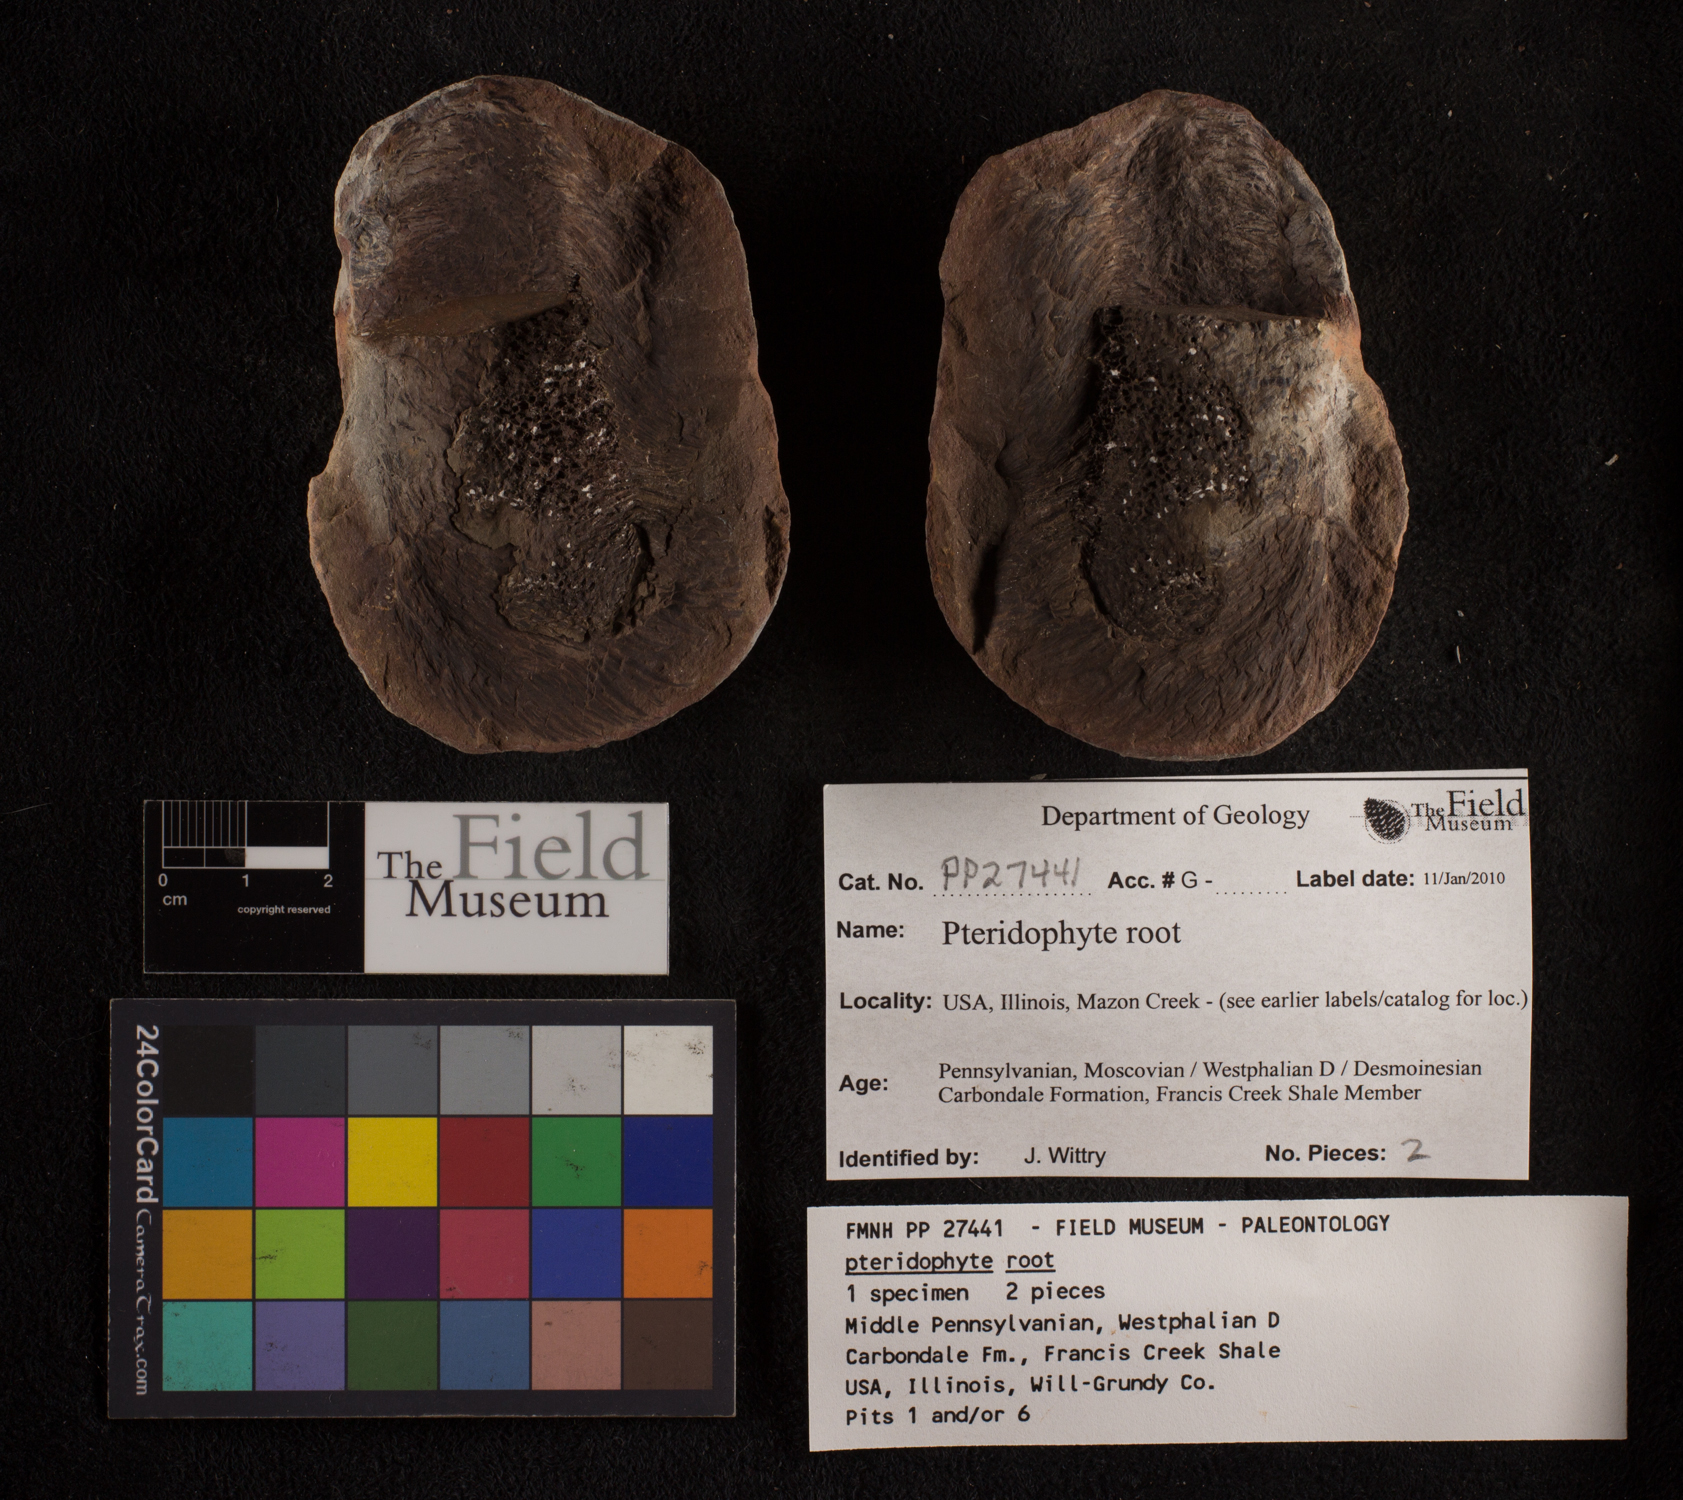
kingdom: Plantae
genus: Rhacophyllum
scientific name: Rhacophyllum
